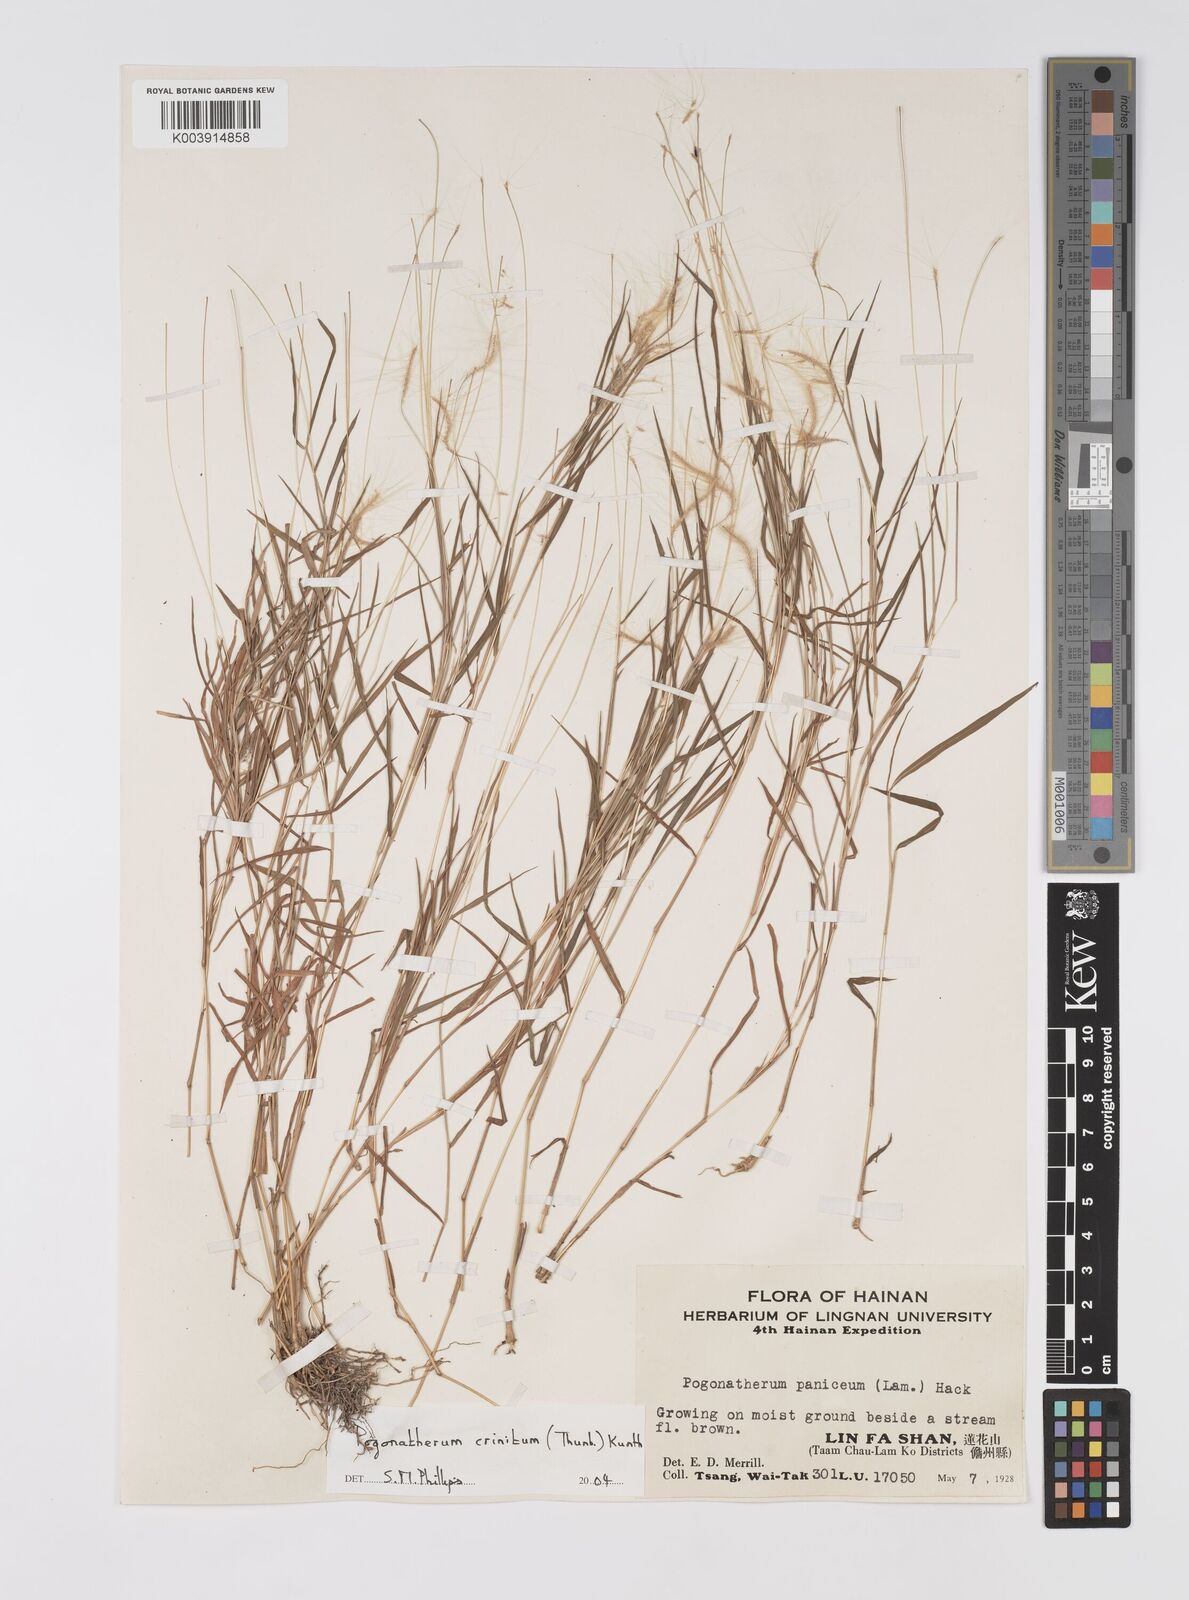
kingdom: Plantae
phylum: Tracheophyta
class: Liliopsida
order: Poales
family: Poaceae
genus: Pogonatherum
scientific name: Pogonatherum crinitum
